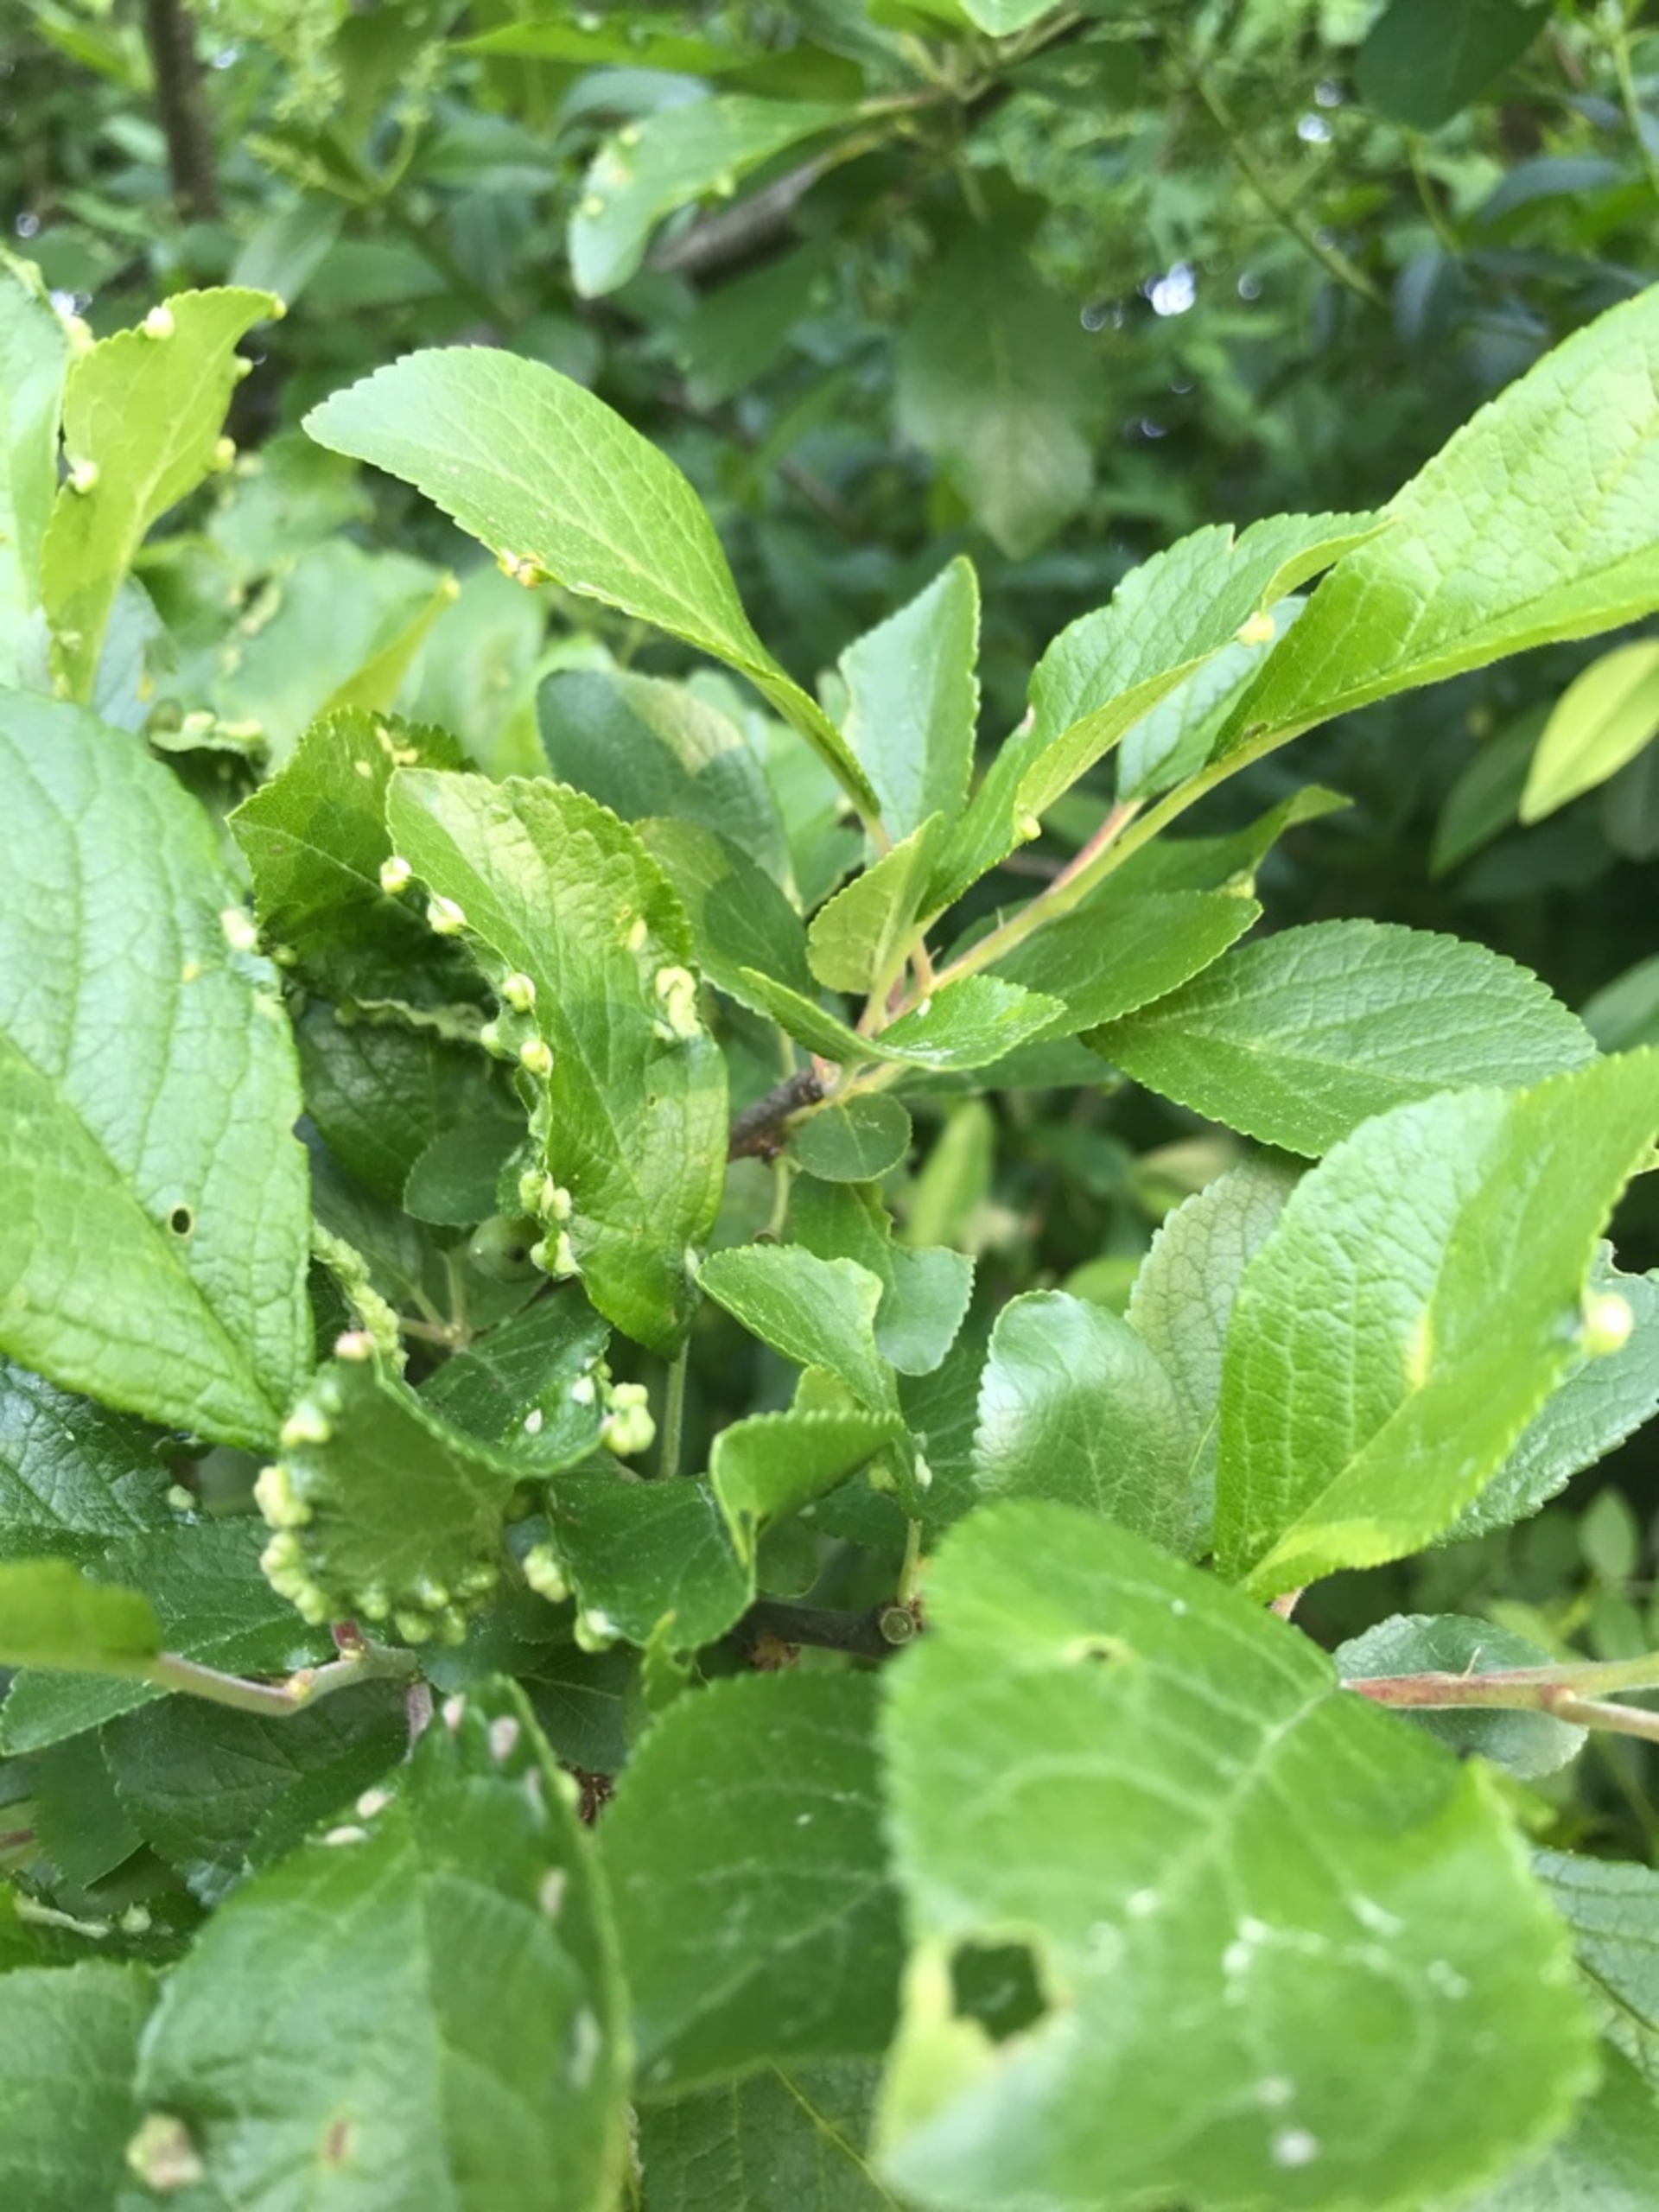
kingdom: Animalia
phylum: Arthropoda
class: Arachnida
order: Trombidiformes
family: Eriophyidae
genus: Eriophyes
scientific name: Eriophyes similis
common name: Blommepunggalmide
